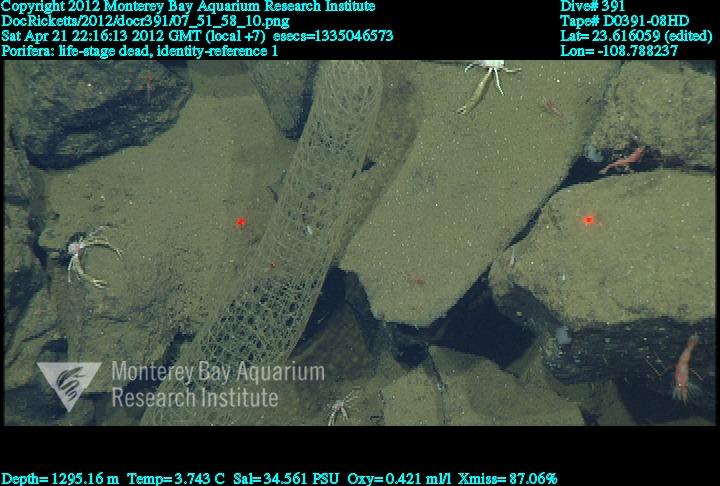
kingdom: Animalia
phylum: Porifera
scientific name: Porifera
